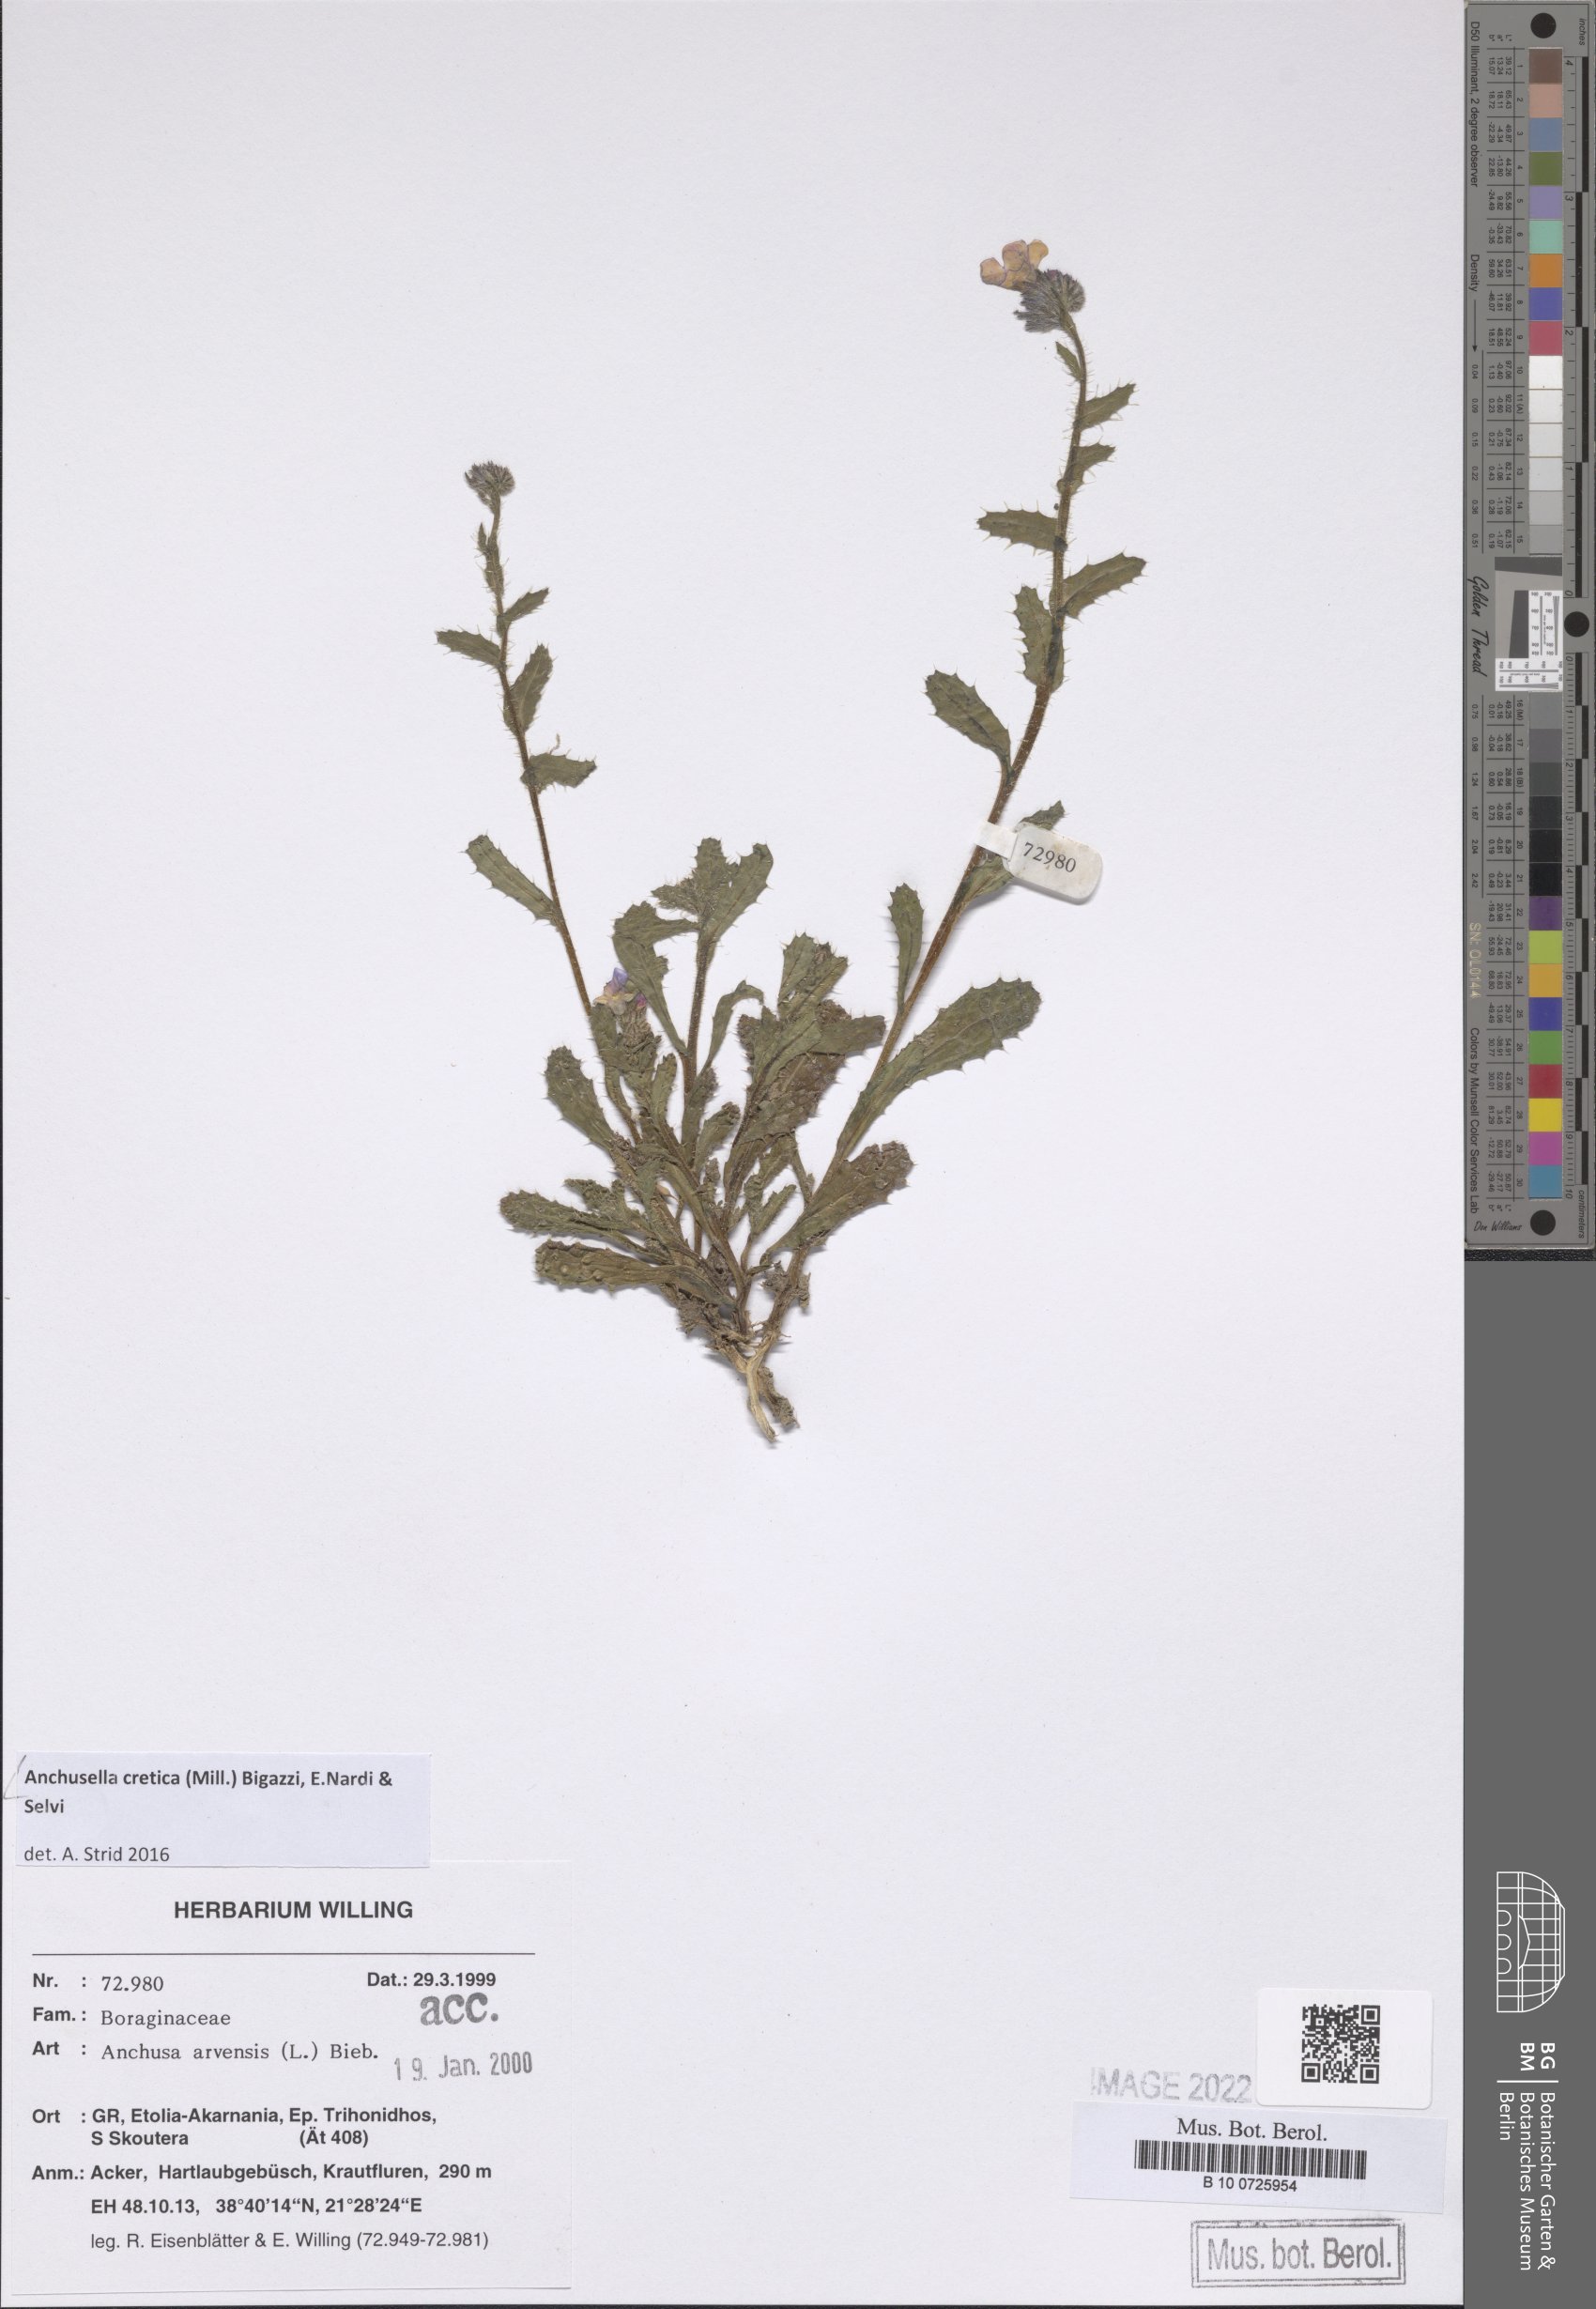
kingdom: Plantae
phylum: Tracheophyta
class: Magnoliopsida
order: Boraginales
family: Boraginaceae
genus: Anchusella
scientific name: Anchusella cretica
